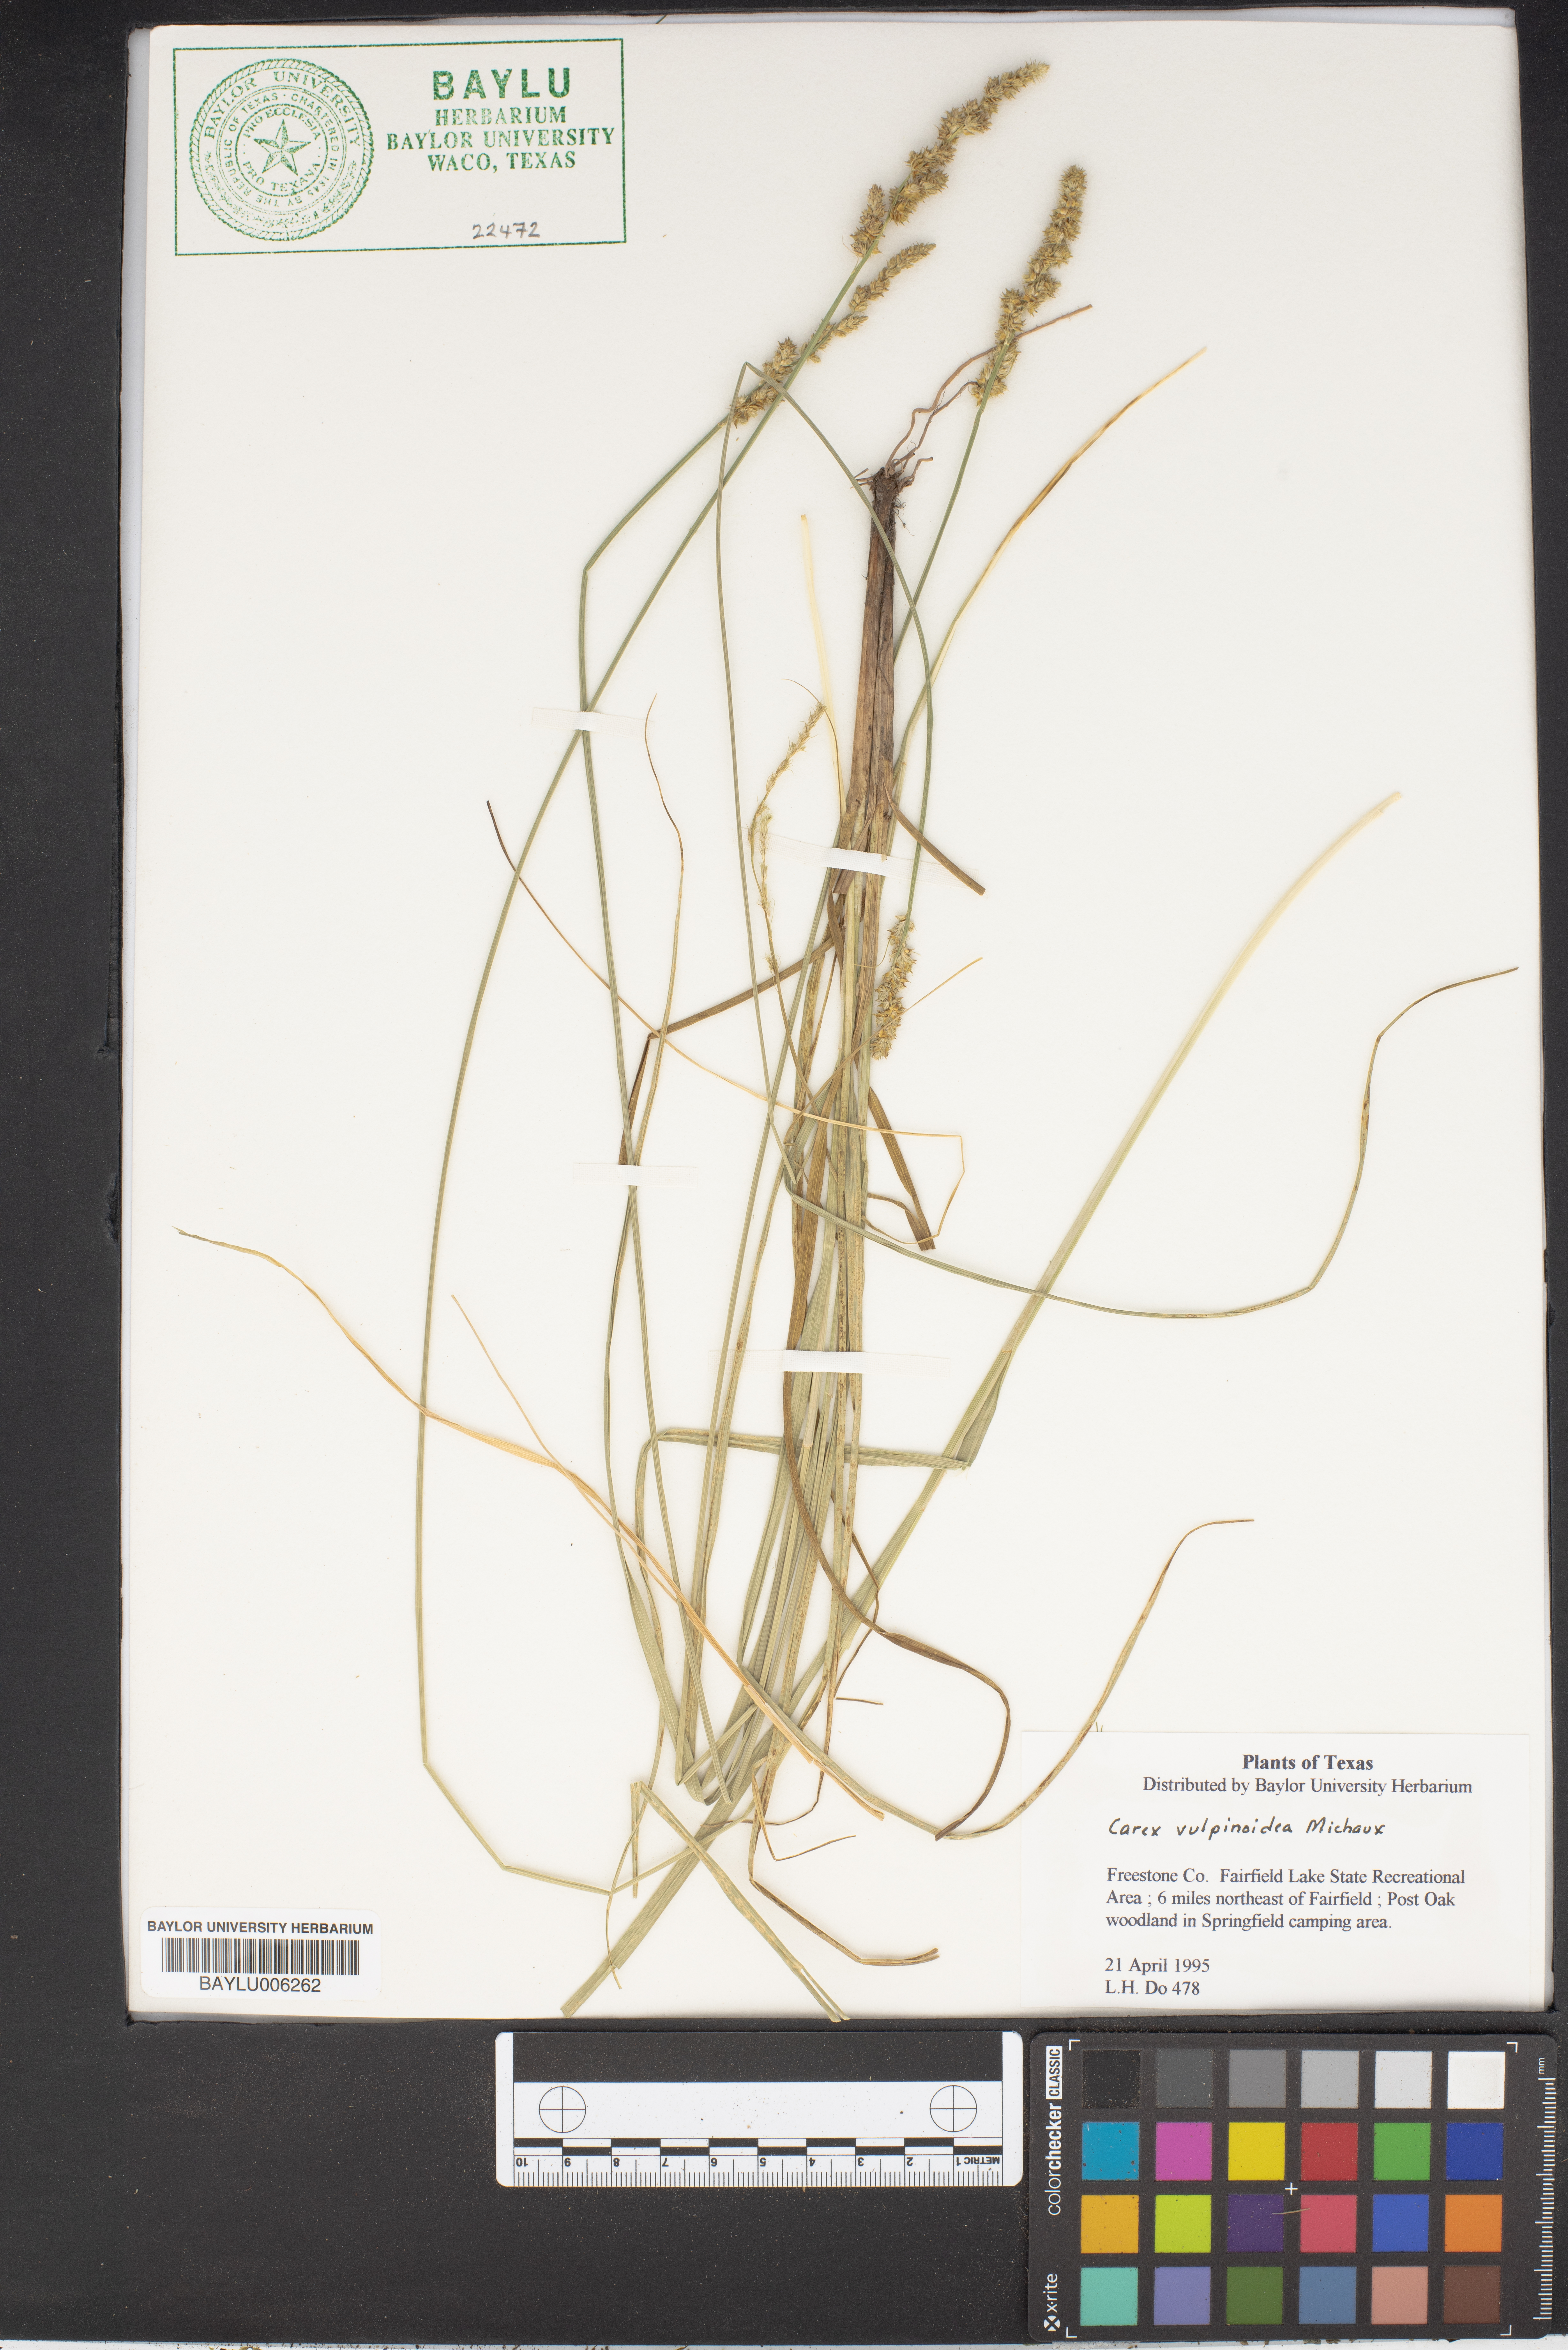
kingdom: Plantae
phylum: Tracheophyta
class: Liliopsida
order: Poales
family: Cyperaceae
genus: Carex
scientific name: Carex vulpinoidea
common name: American fox-sedge
